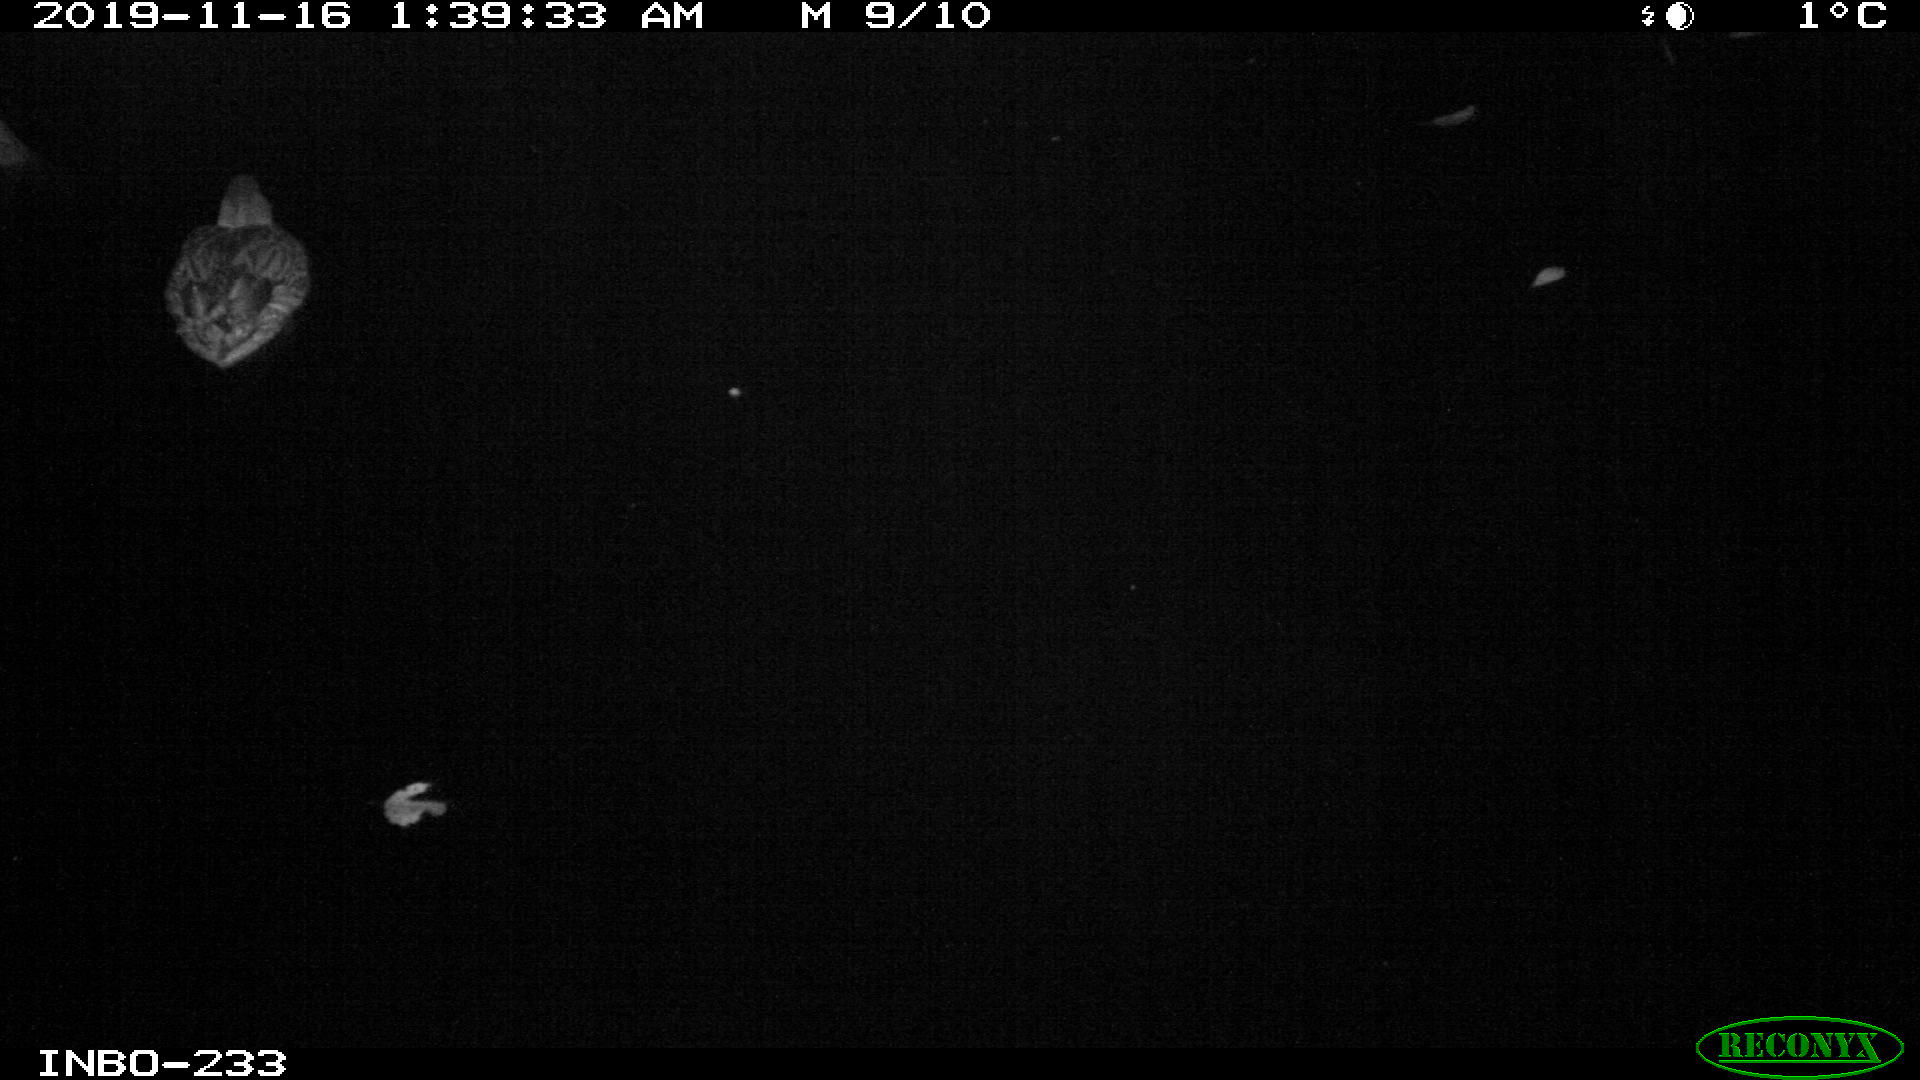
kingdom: Animalia
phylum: Chordata
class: Aves
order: Anseriformes
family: Anatidae
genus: Anas
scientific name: Anas platyrhynchos
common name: Mallard
